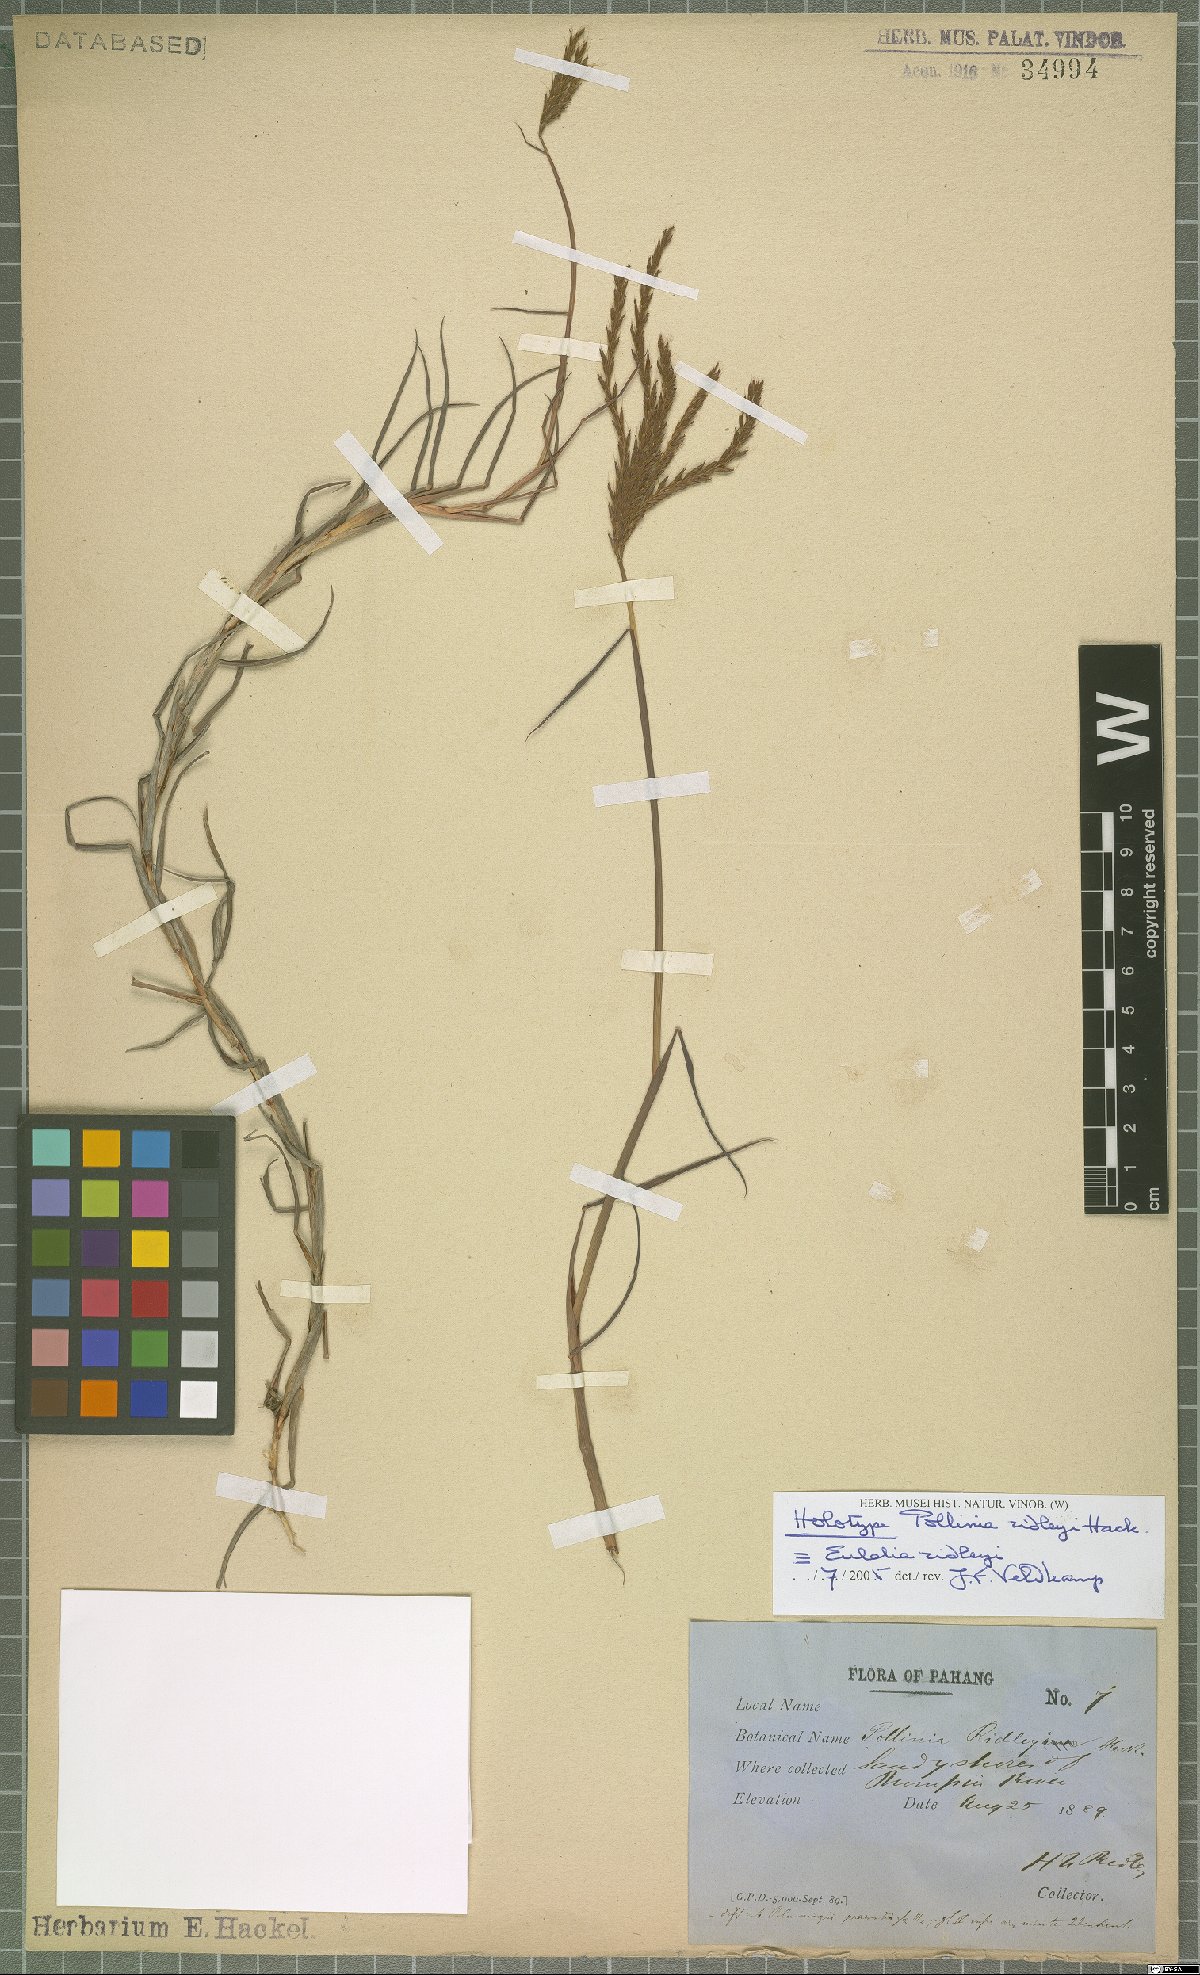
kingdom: Plantae
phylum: Tracheophyta
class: Liliopsida
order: Poales
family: Poaceae
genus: Eulalia
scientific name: Eulalia ridleyi
